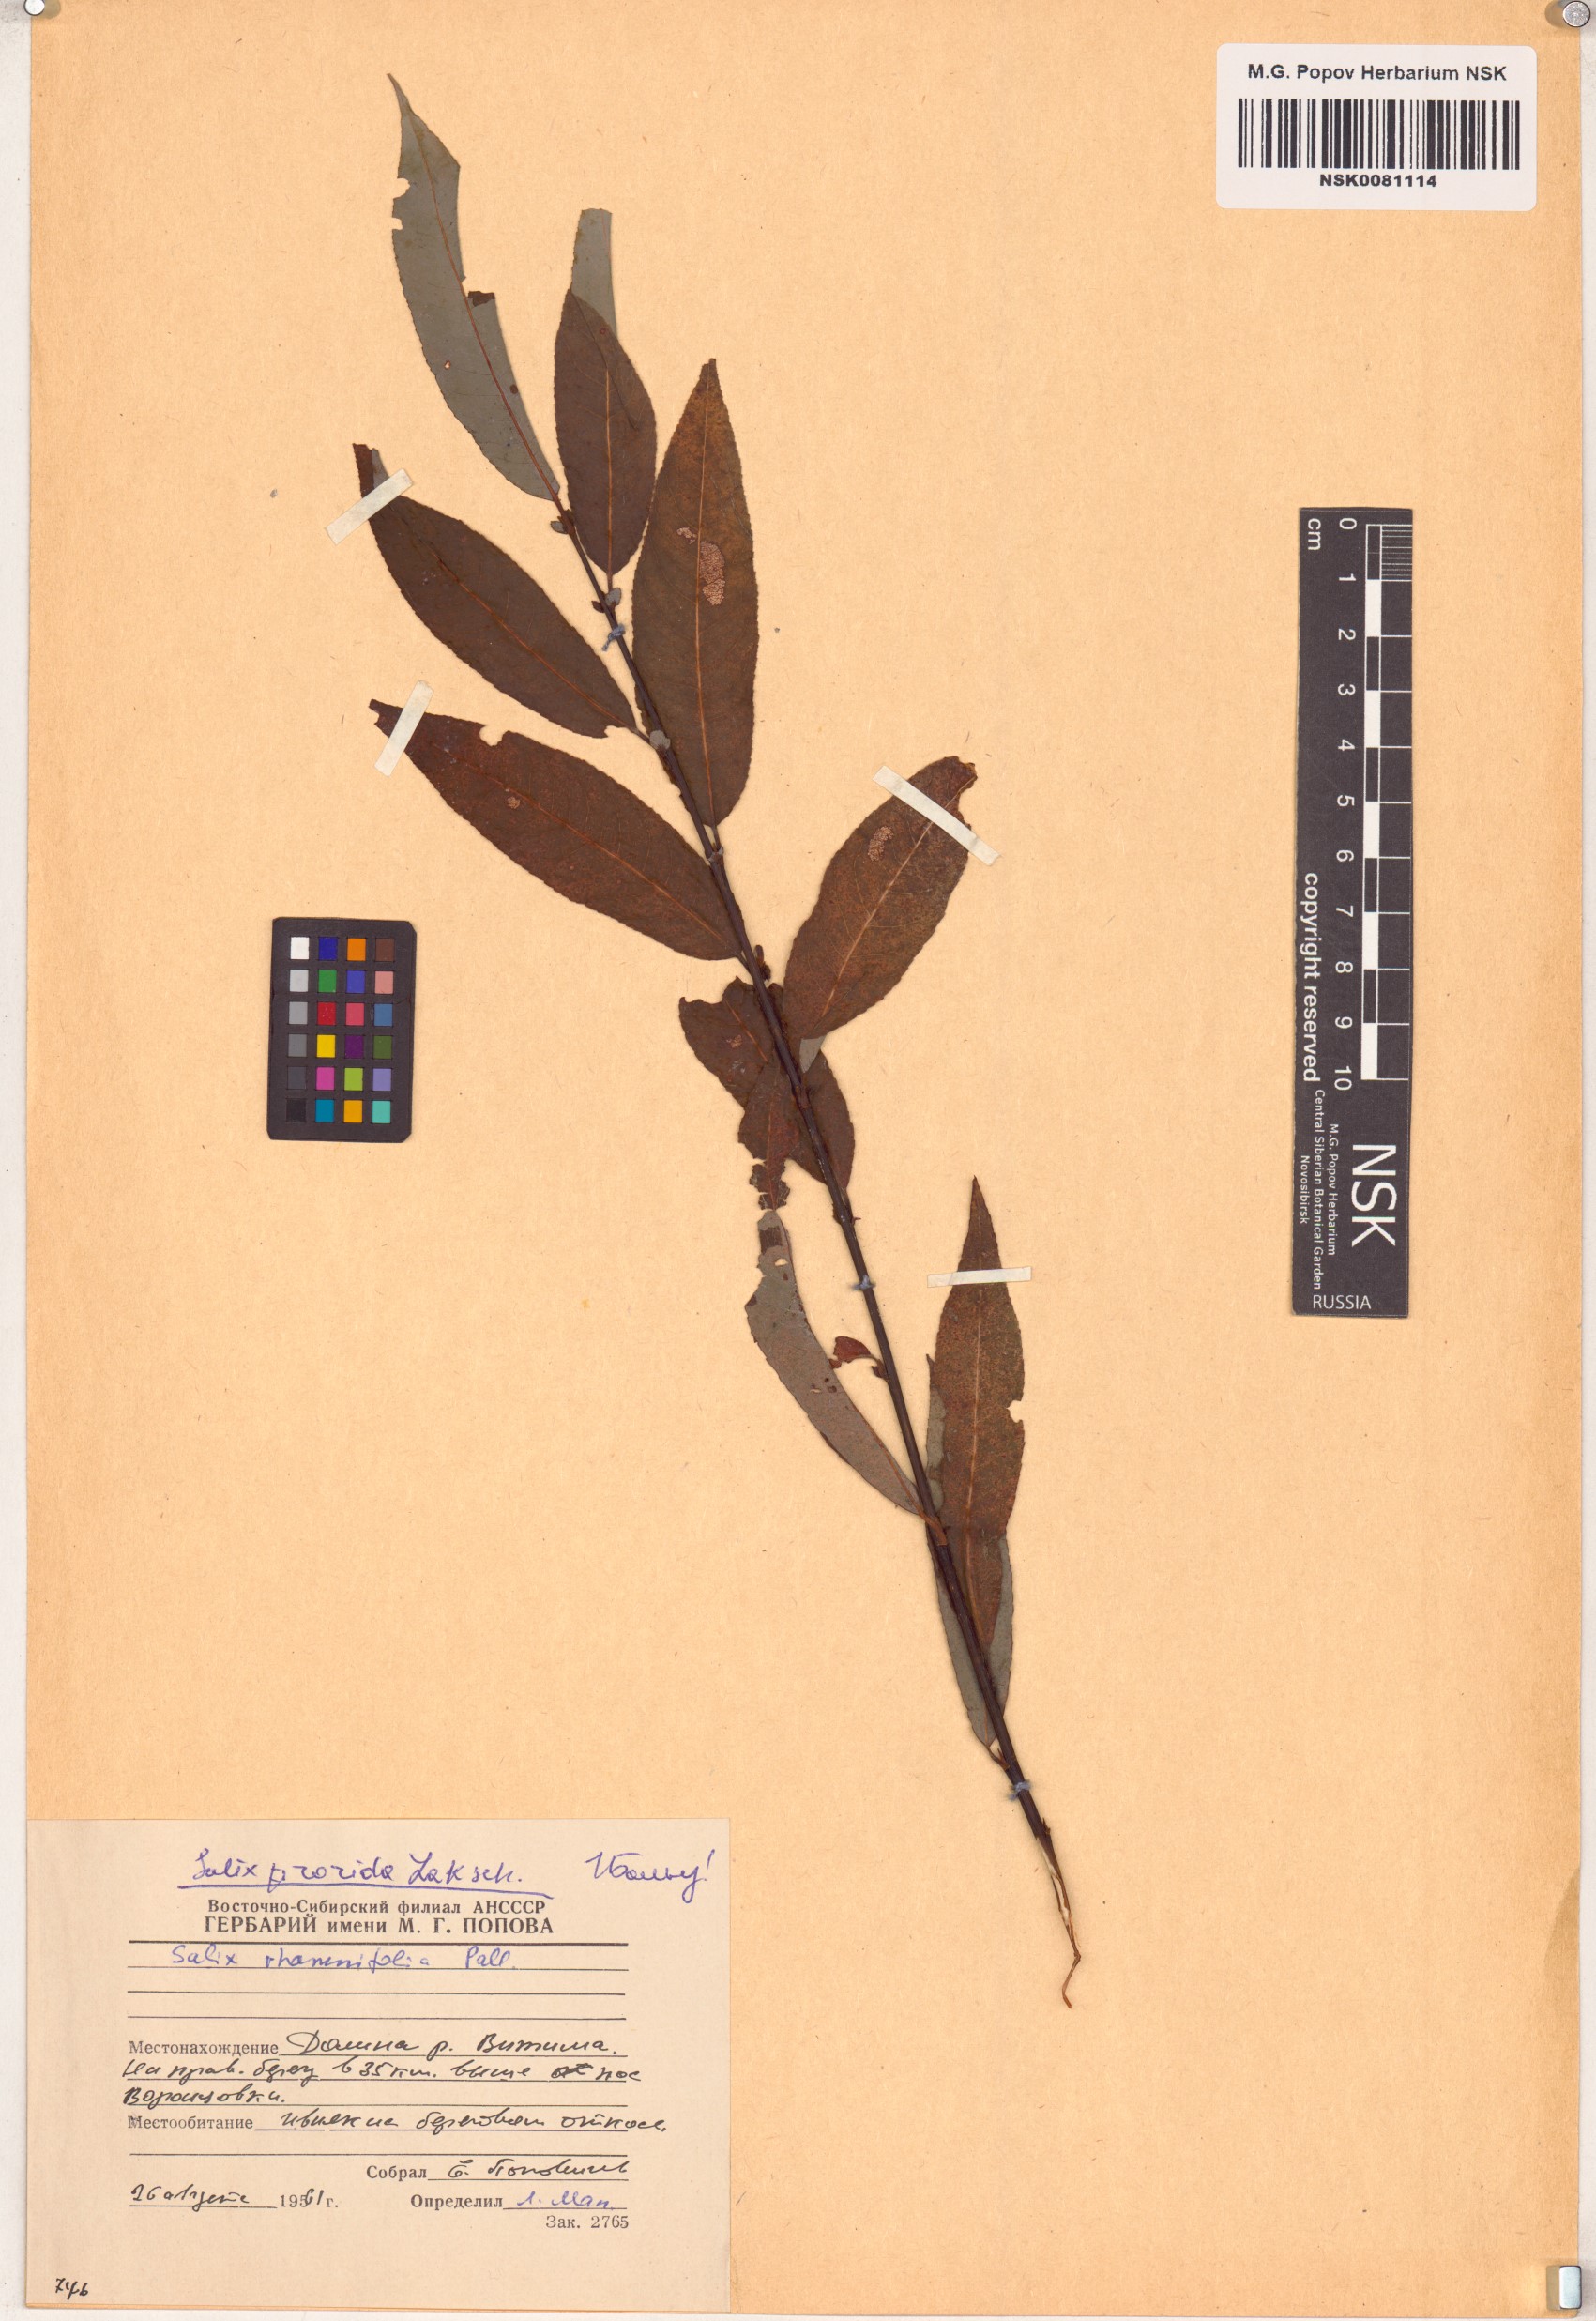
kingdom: Plantae
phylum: Tracheophyta
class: Magnoliopsida
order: Malpighiales
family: Salicaceae
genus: Salix
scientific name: Salix rorida
